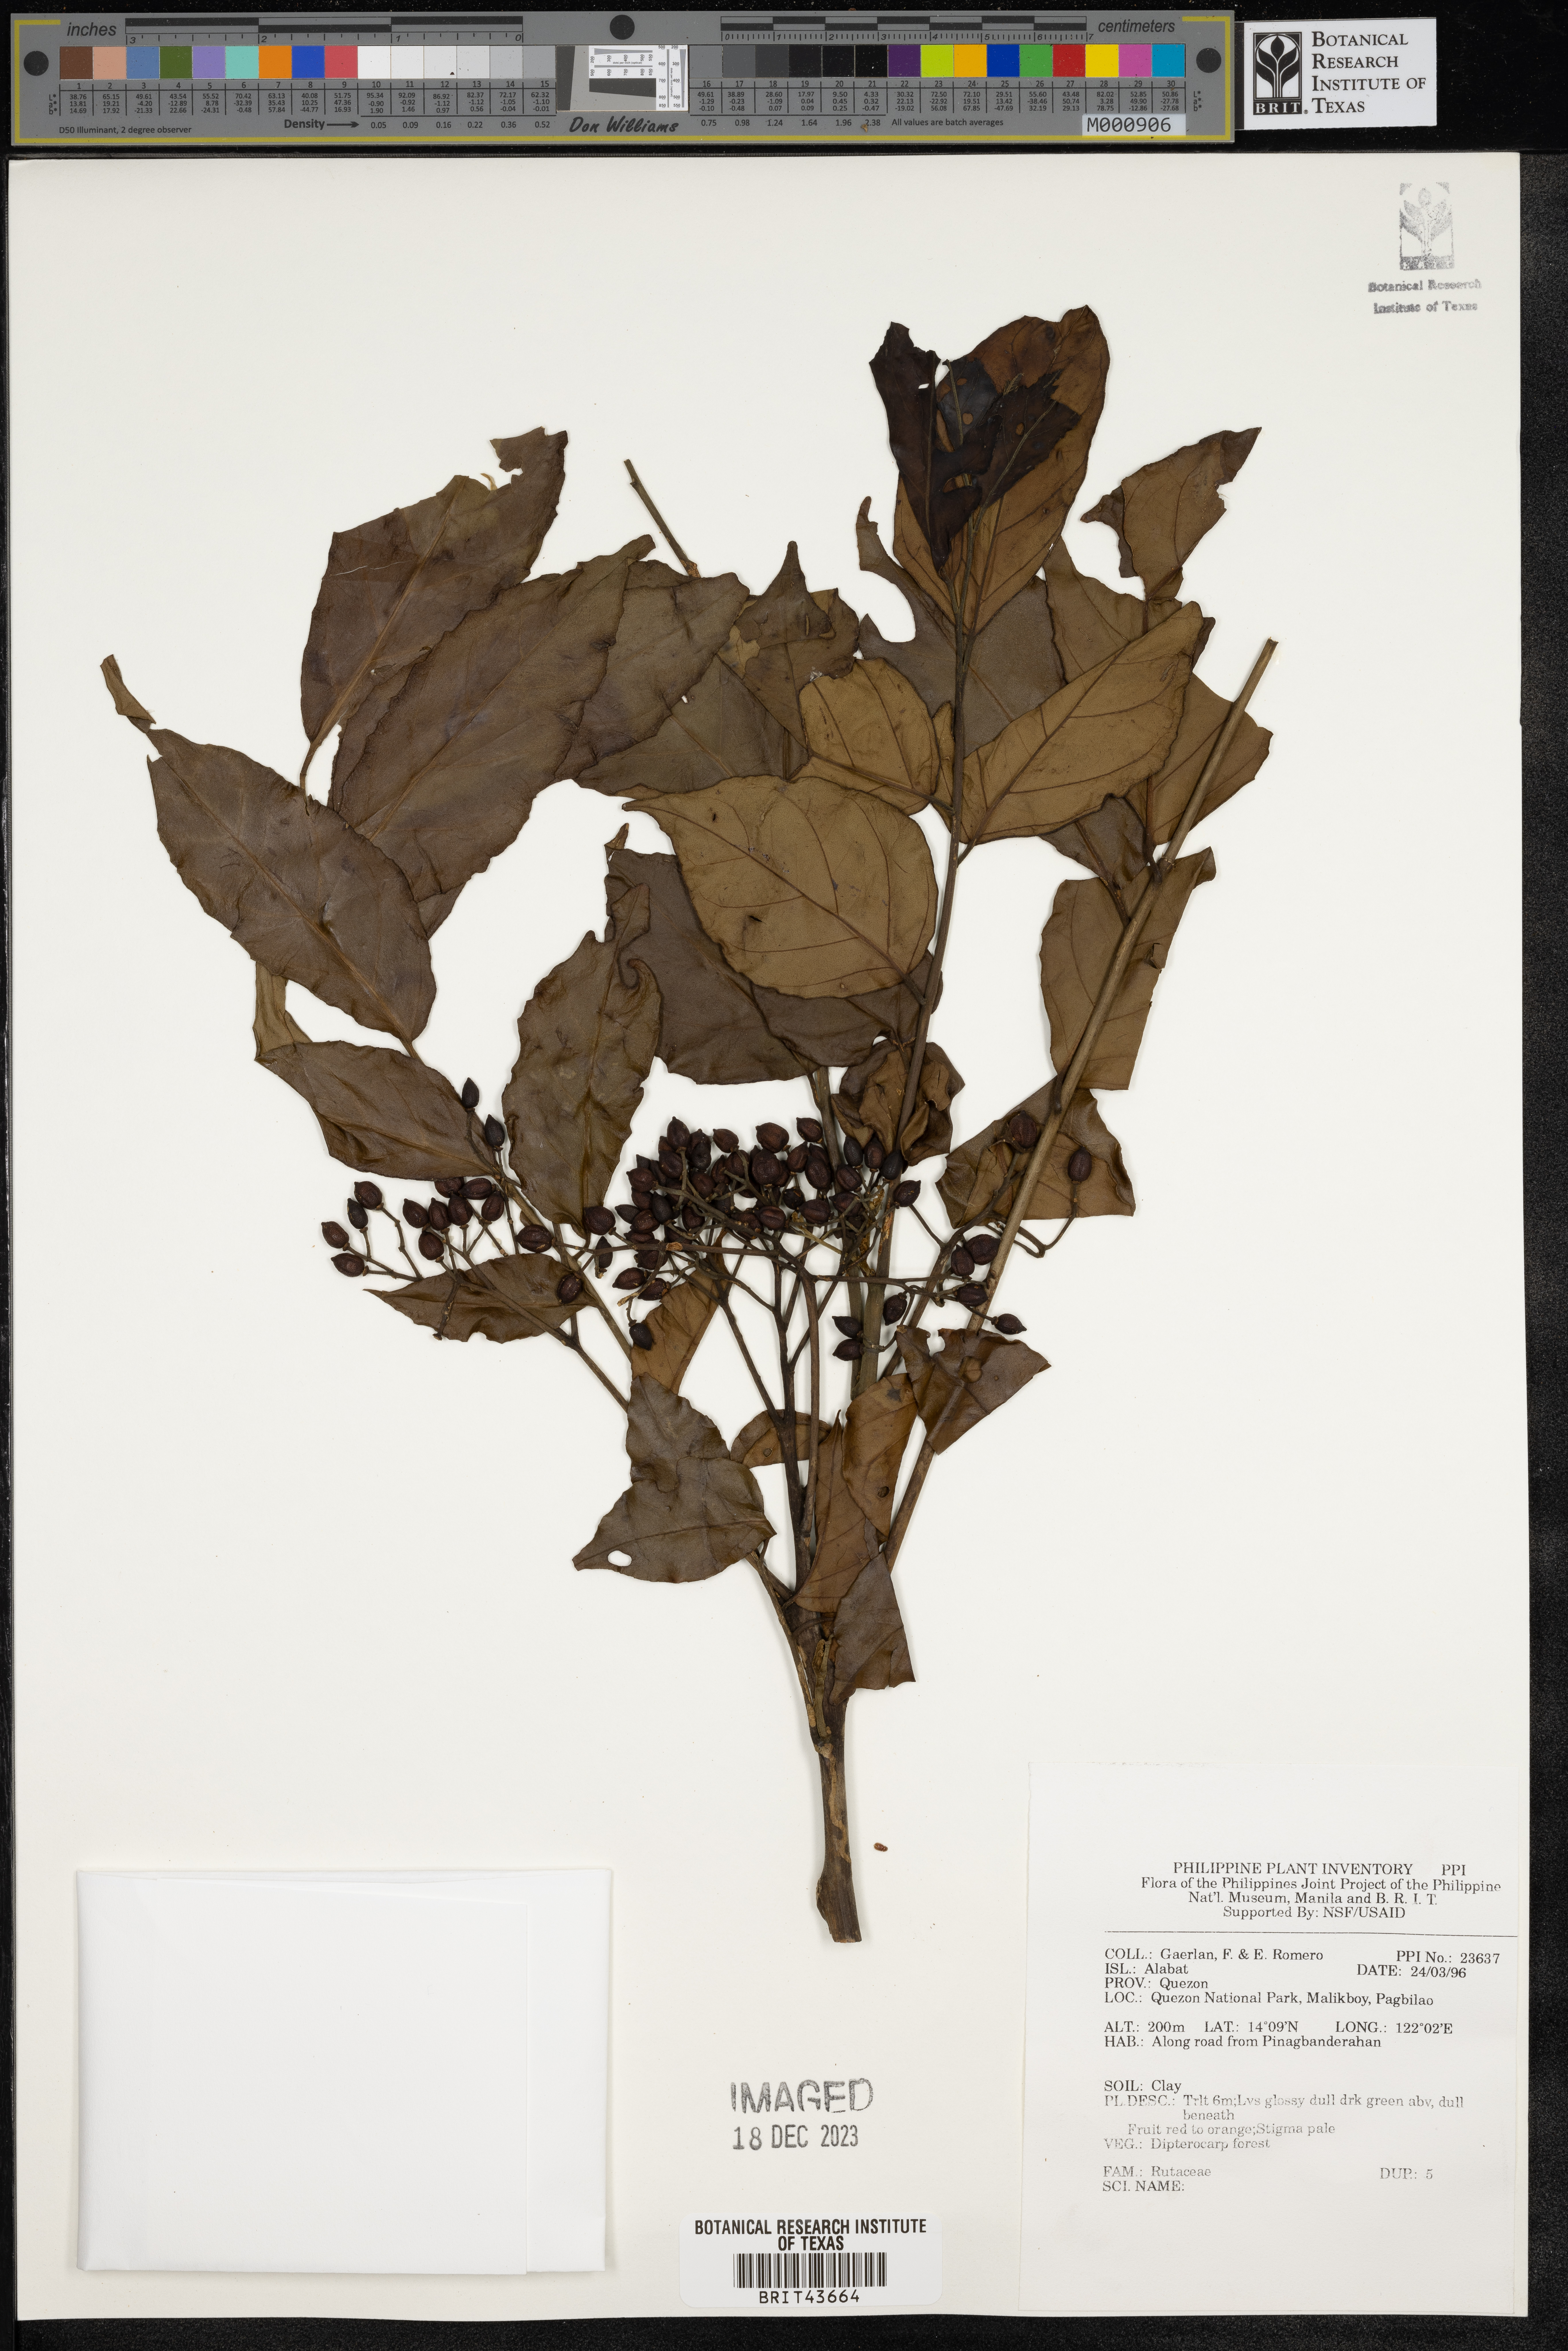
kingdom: Plantae
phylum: Tracheophyta
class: Magnoliopsida
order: Sapindales
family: Rutaceae
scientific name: Rutaceae
